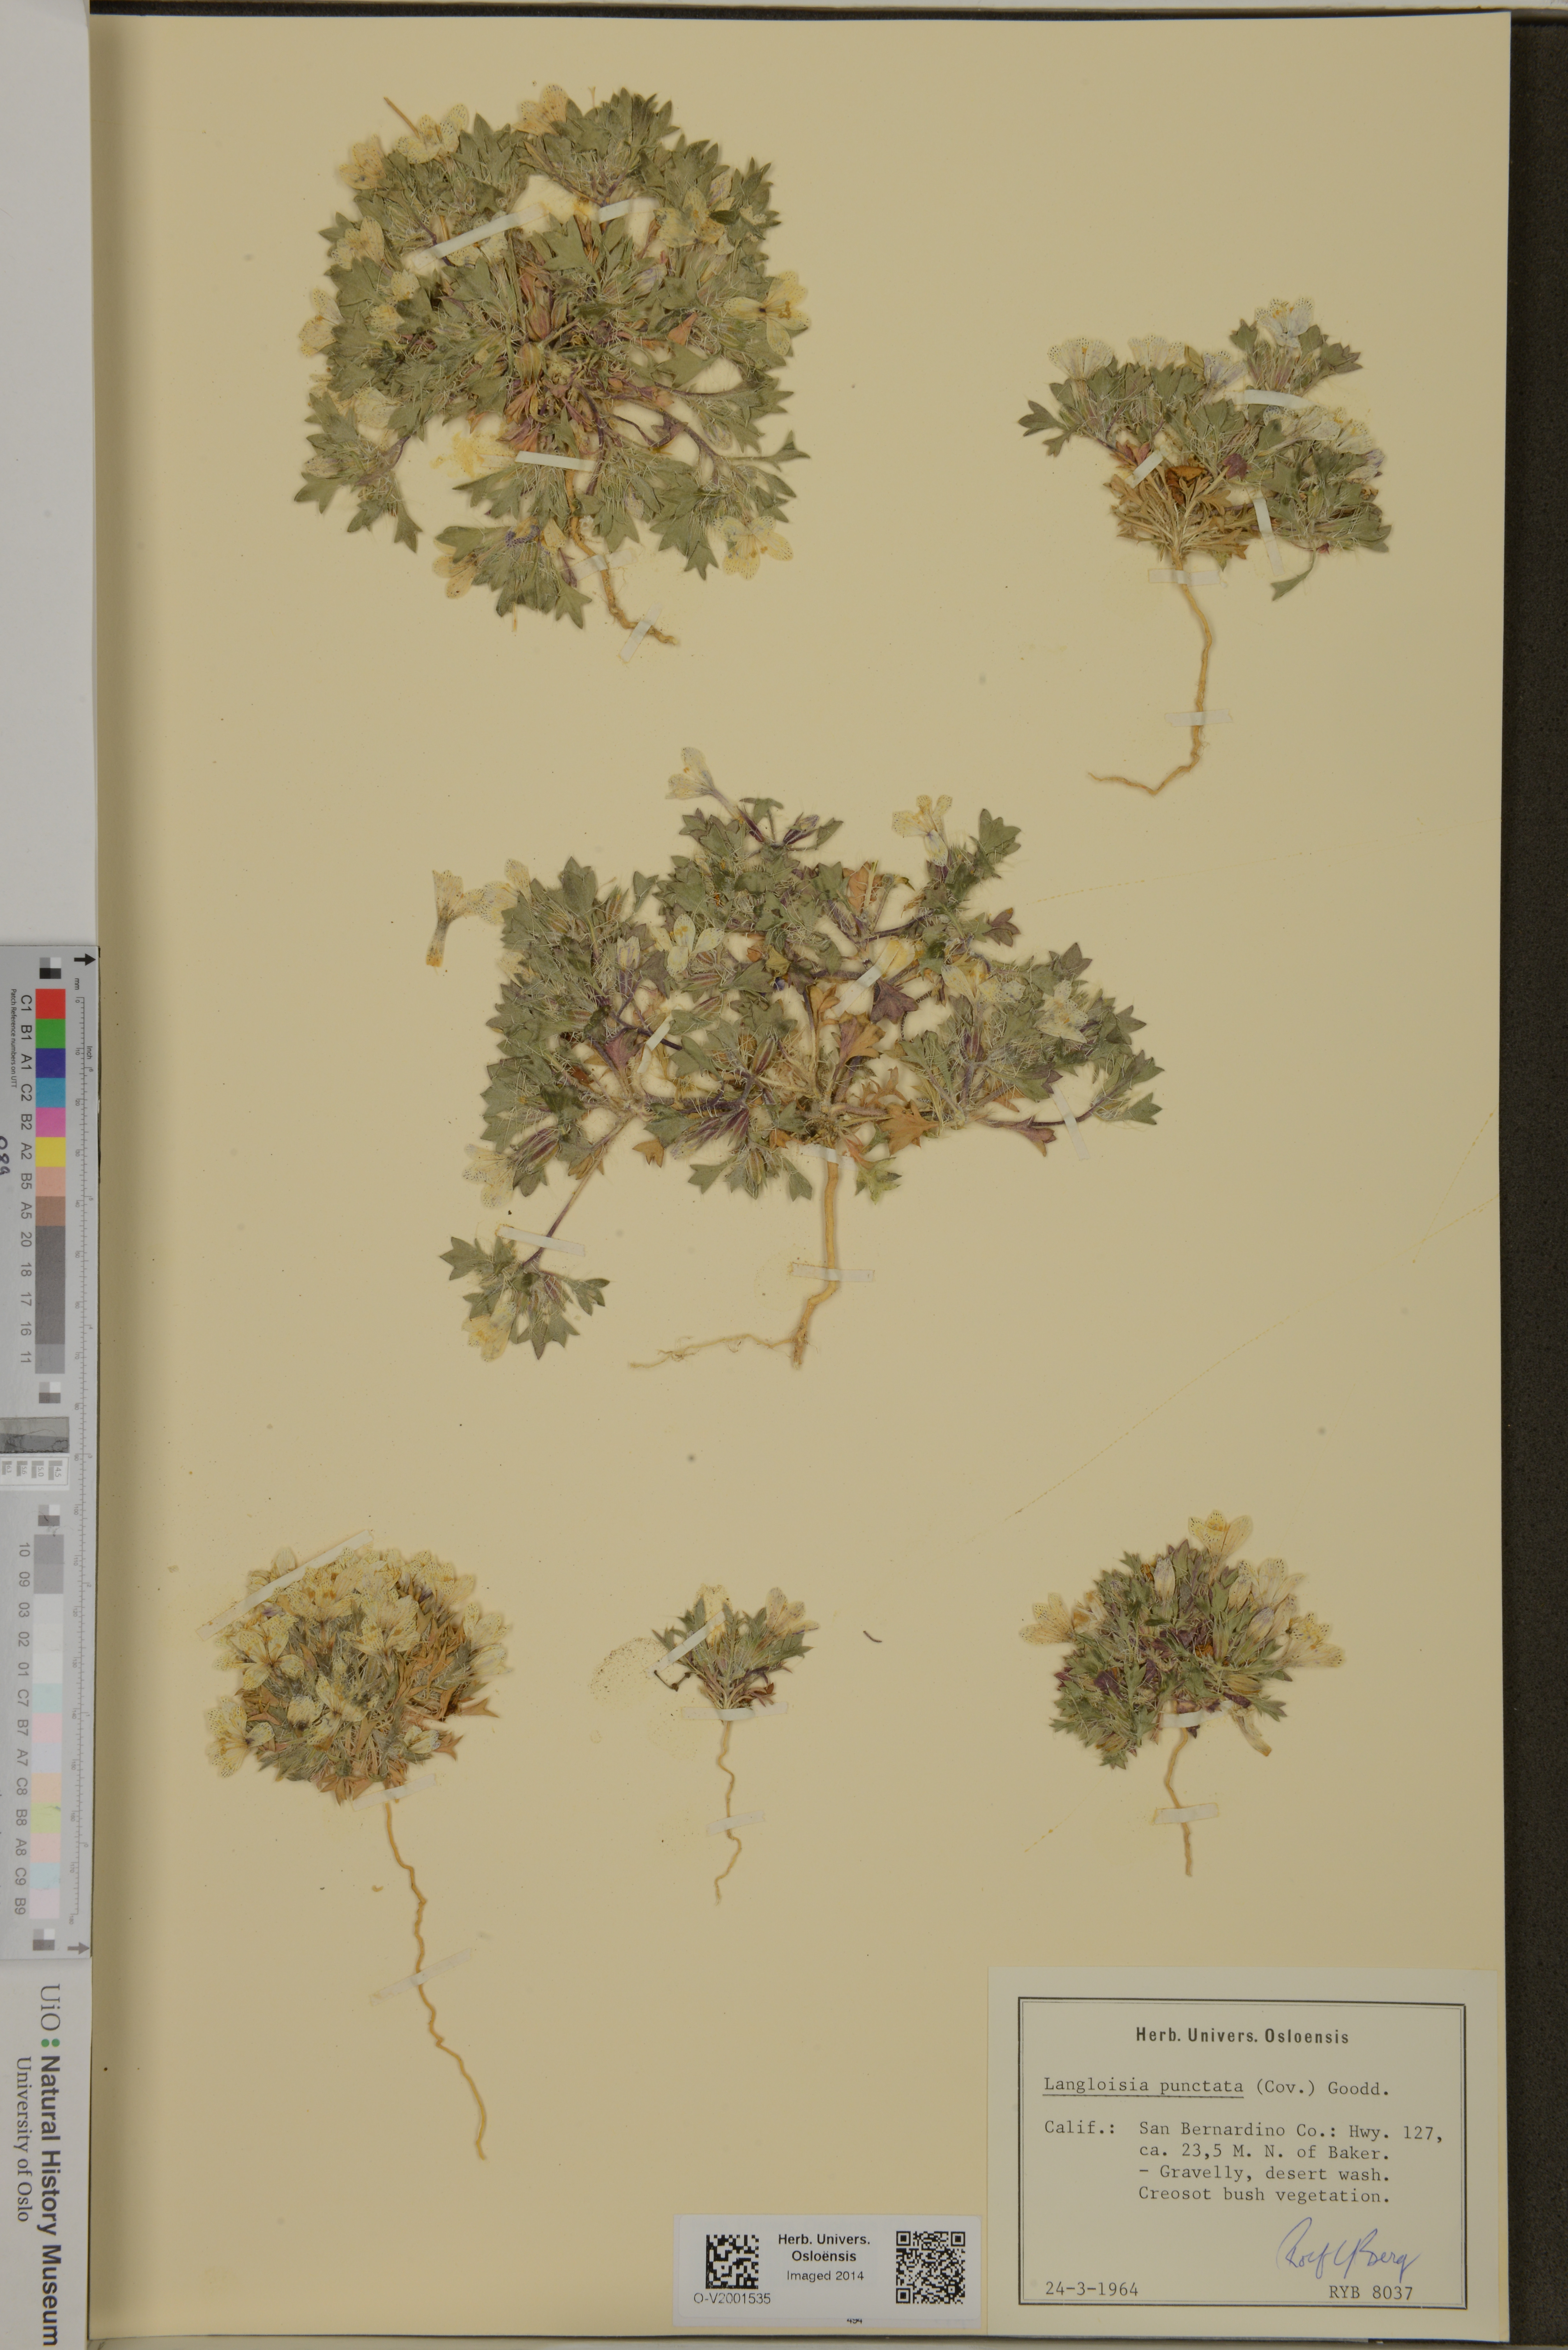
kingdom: Plantae
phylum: Tracheophyta
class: Magnoliopsida
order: Ericales
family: Polemoniaceae
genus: Langloisia
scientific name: Langloisia setosissima
